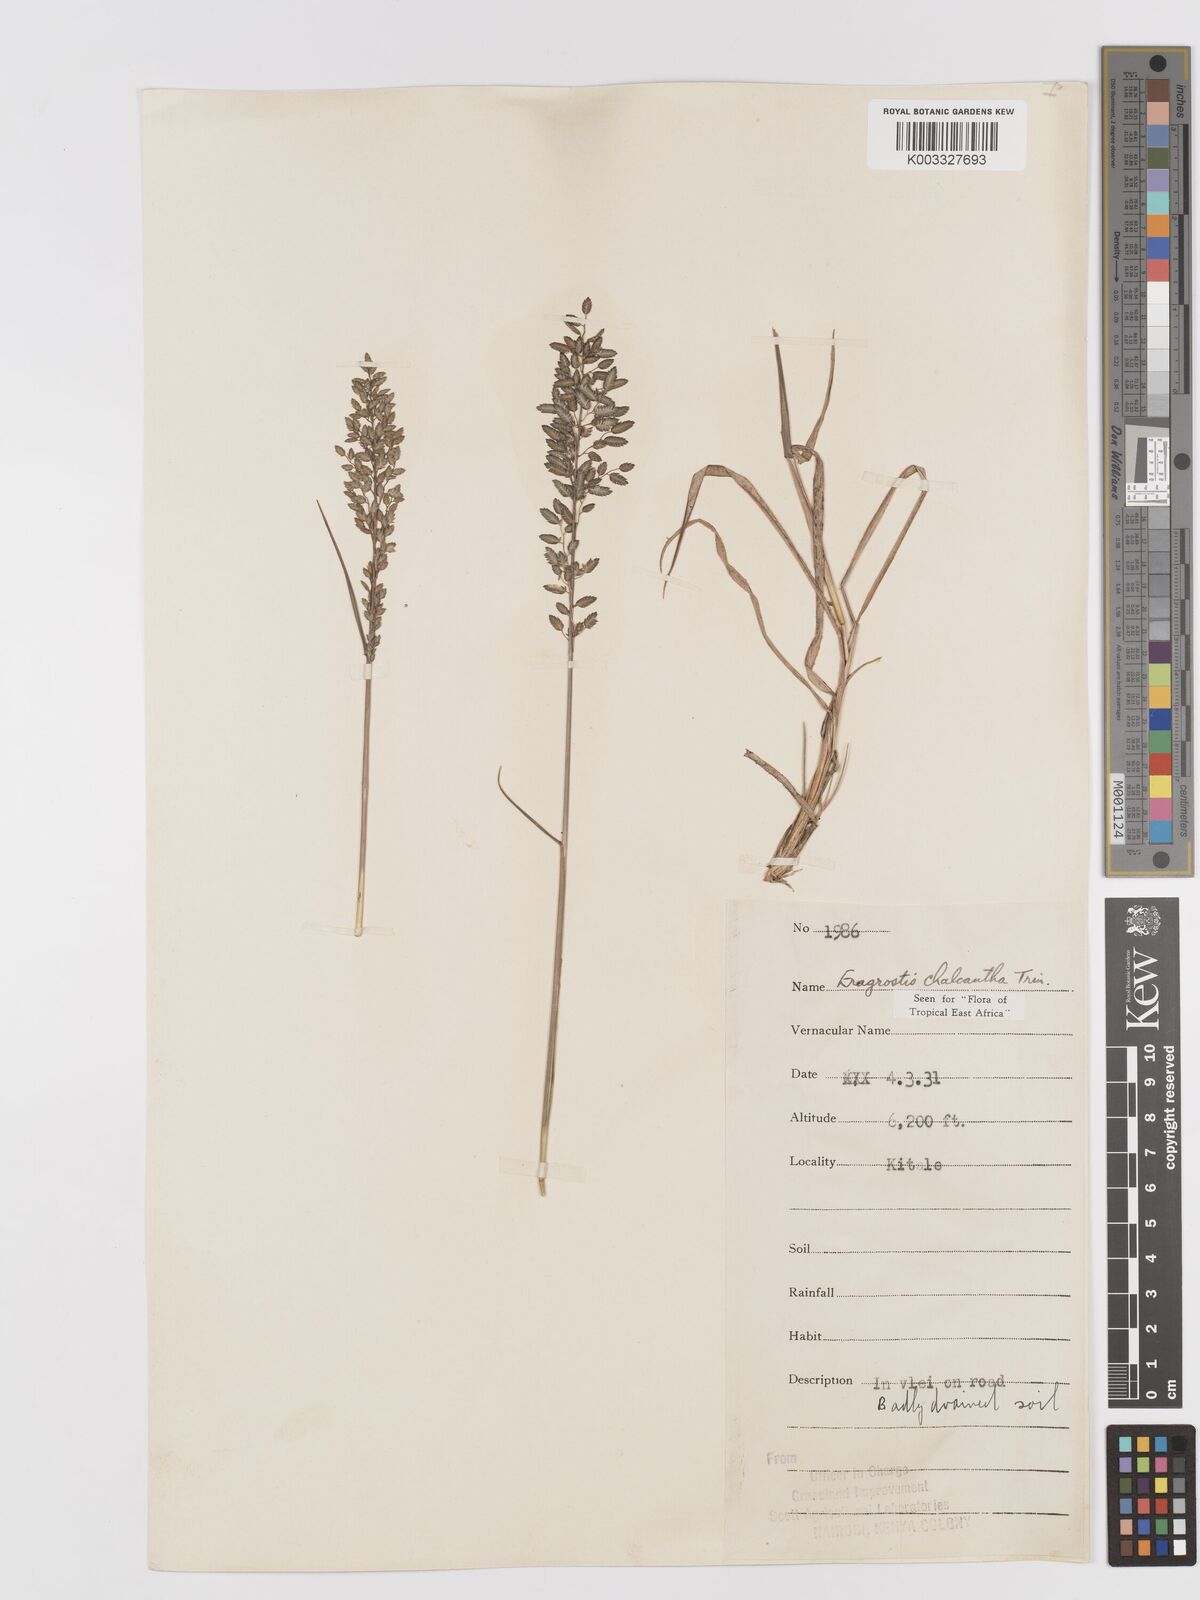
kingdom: Plantae
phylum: Tracheophyta
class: Liliopsida
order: Poales
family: Poaceae
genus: Eragrostis
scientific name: Eragrostis racemosa
